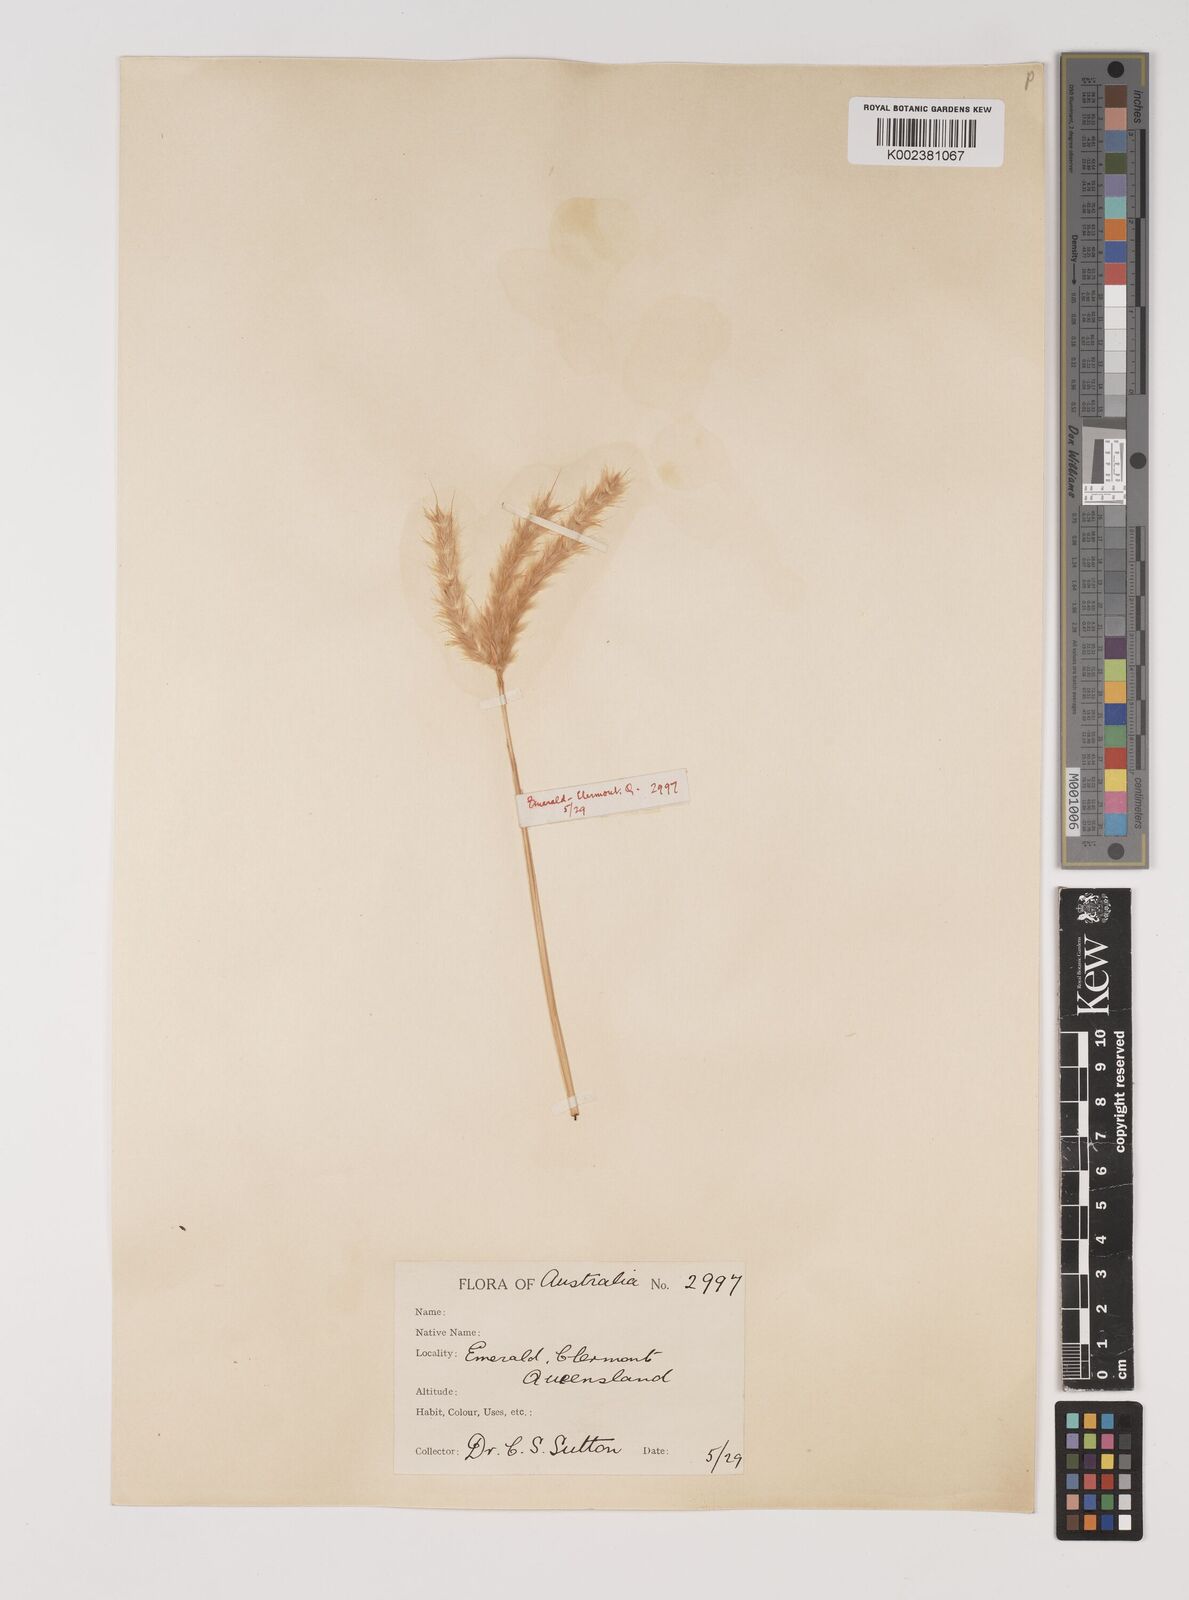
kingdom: Plantae
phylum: Tracheophyta
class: Liliopsida
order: Poales
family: Poaceae
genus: Bothriochloa
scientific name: Bothriochloa erianthoides
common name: Satin-top grass
